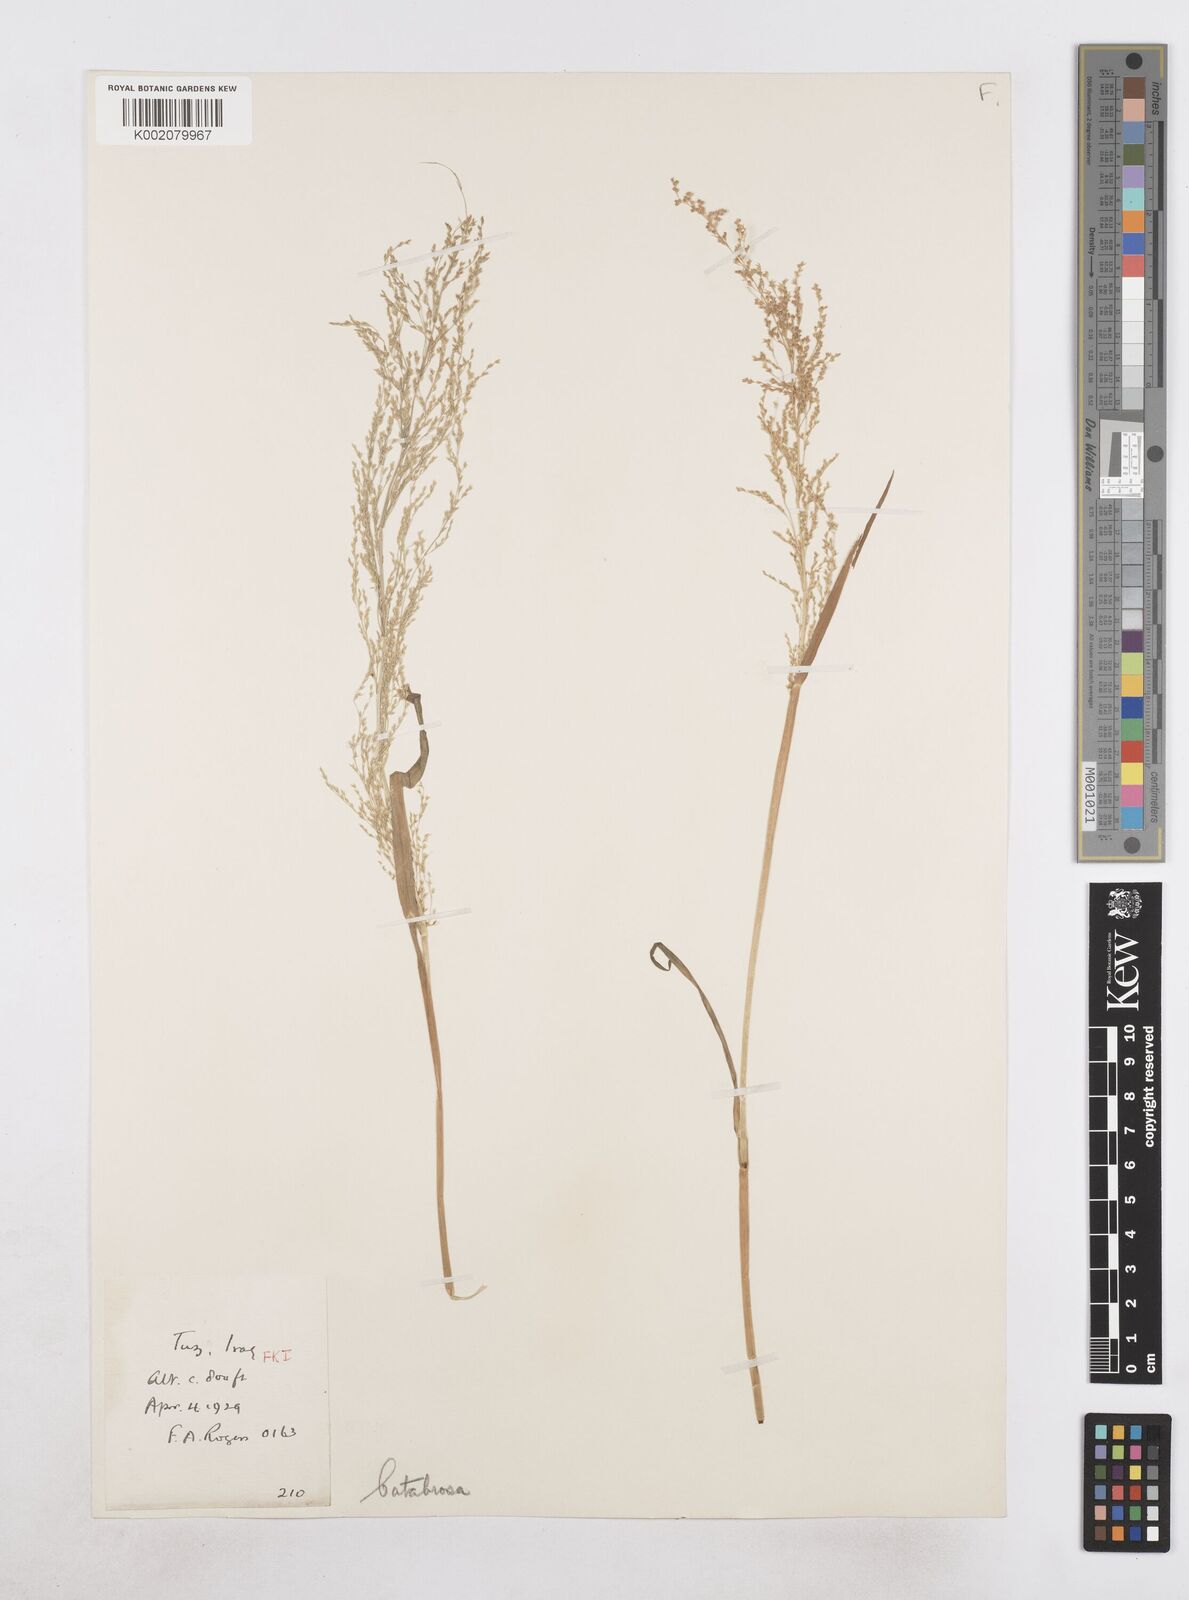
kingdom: Plantae
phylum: Tracheophyta
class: Liliopsida
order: Poales
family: Poaceae
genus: Catabrosa
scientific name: Catabrosa aquatica
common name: Whorl-grass
